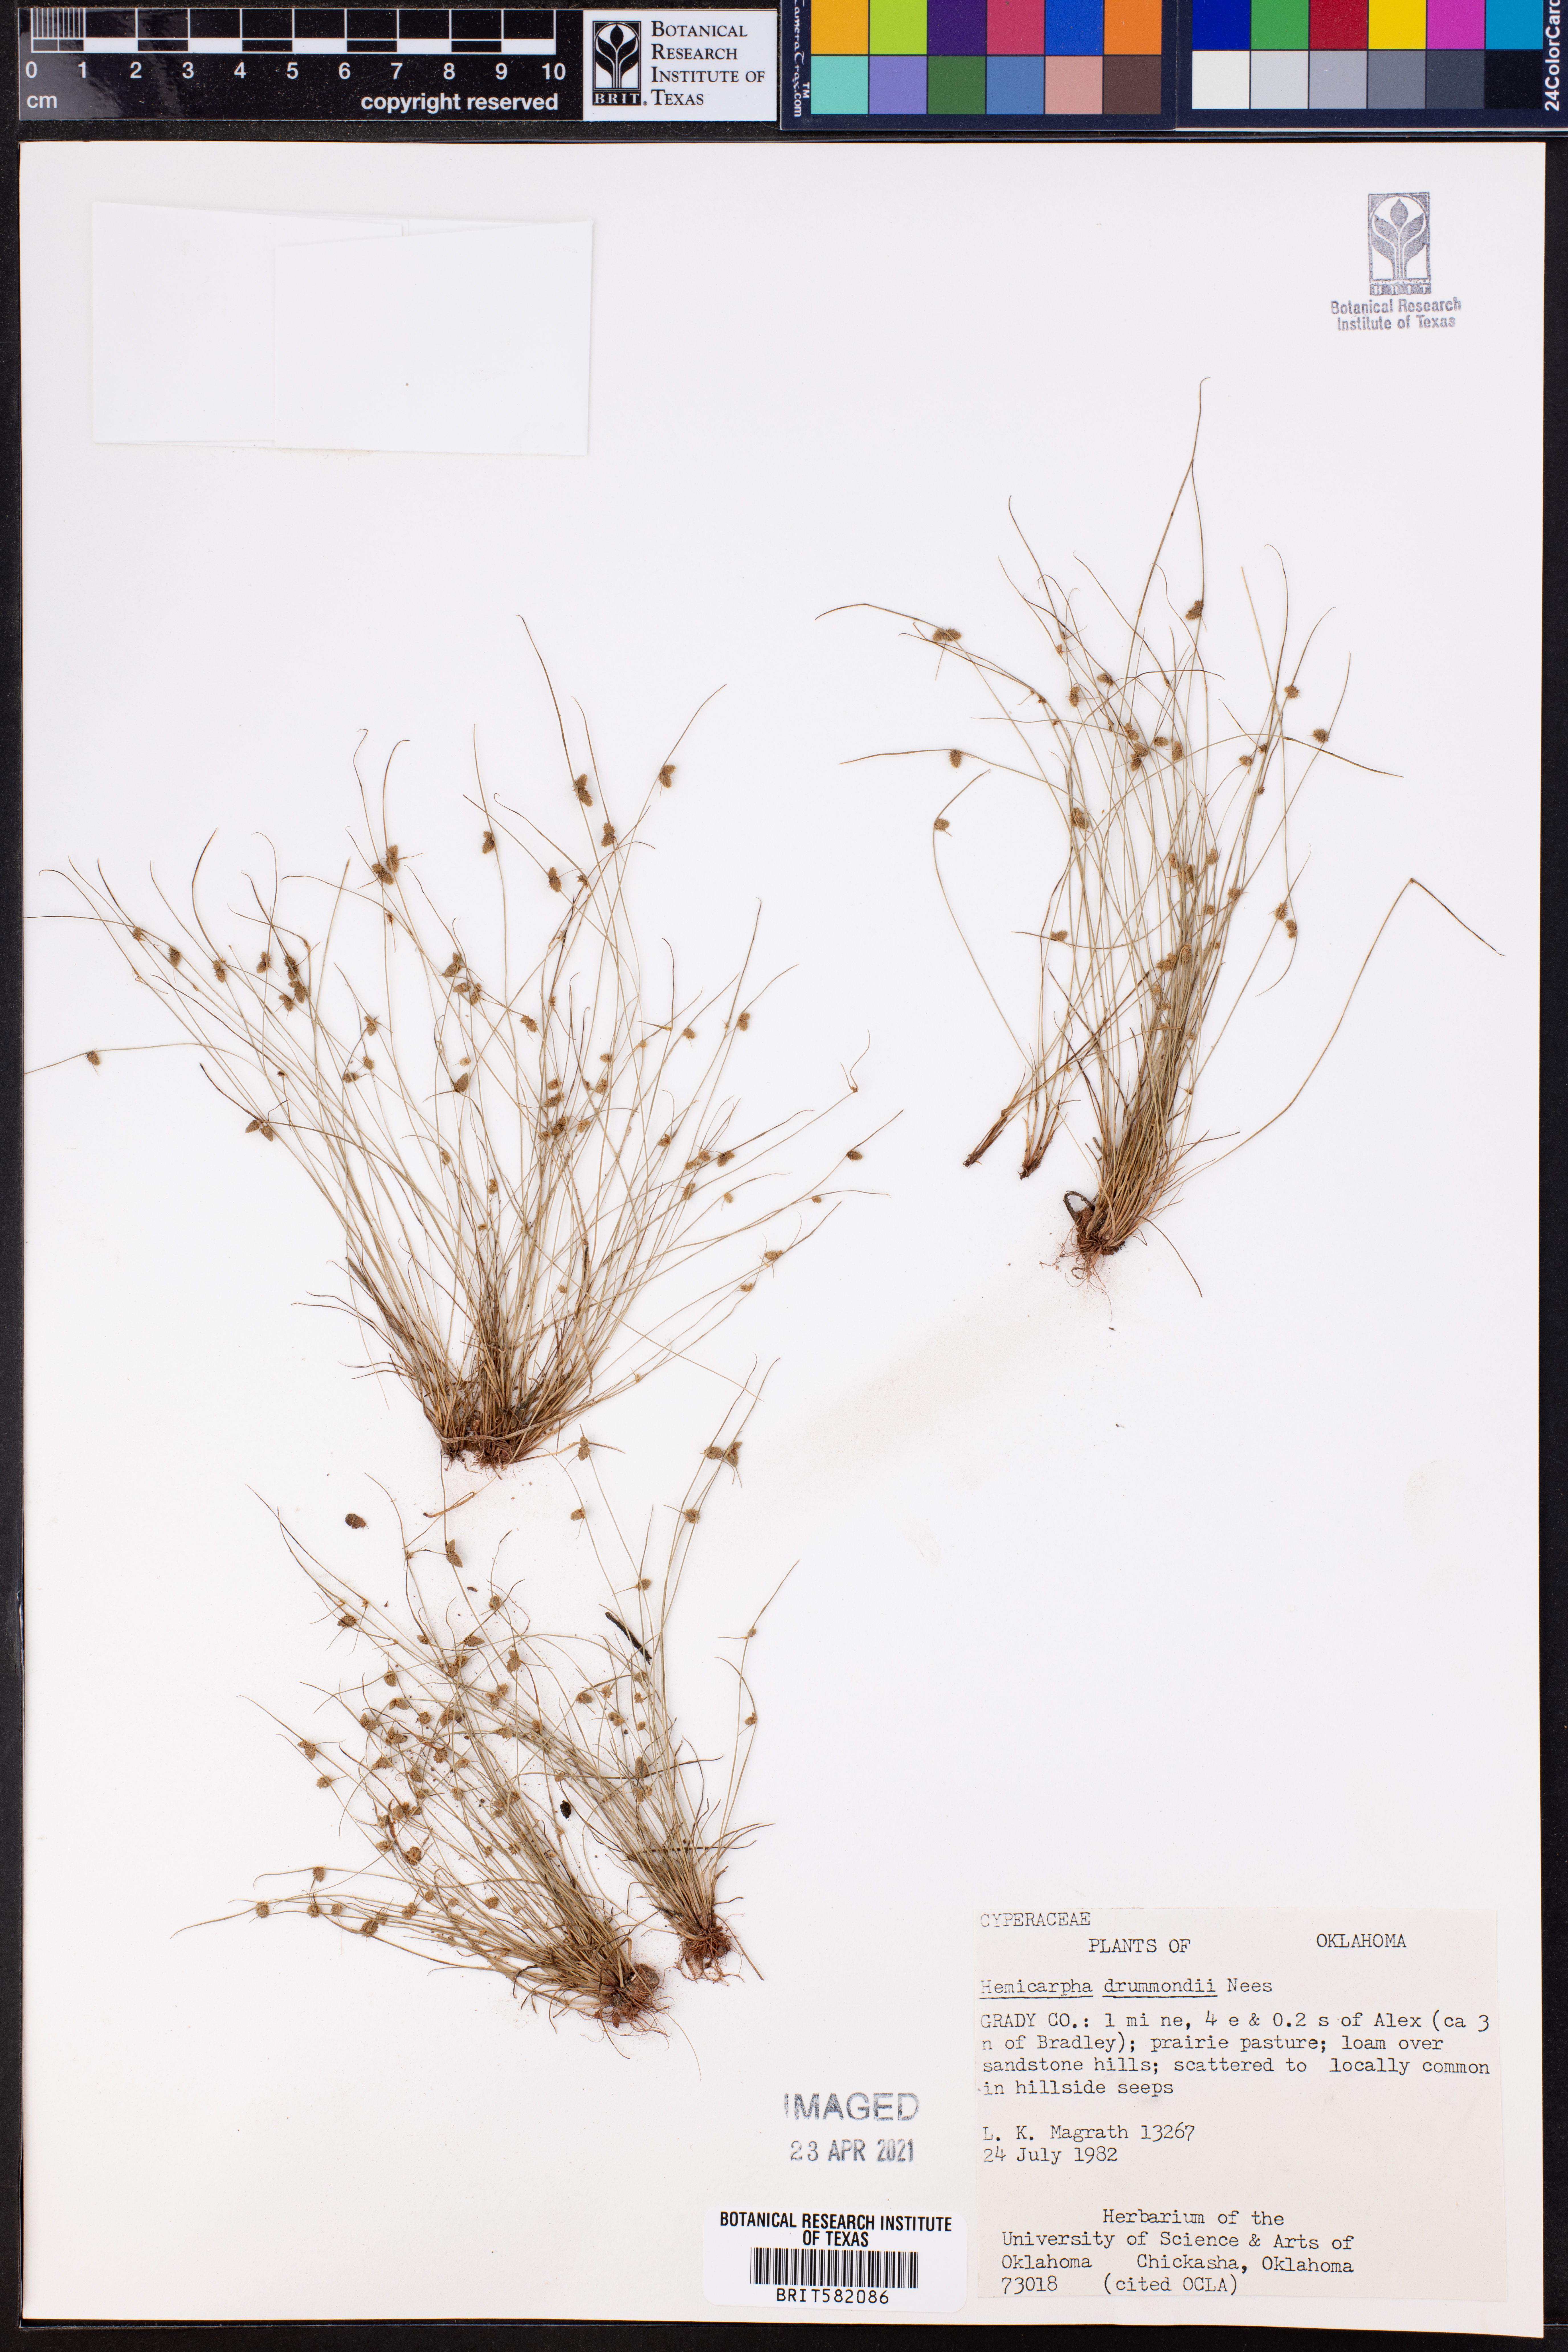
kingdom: Plantae
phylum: Tracheophyta
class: Liliopsida
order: Poales
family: Cyperaceae
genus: Cyperus
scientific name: Cyperus hemidrummondii
